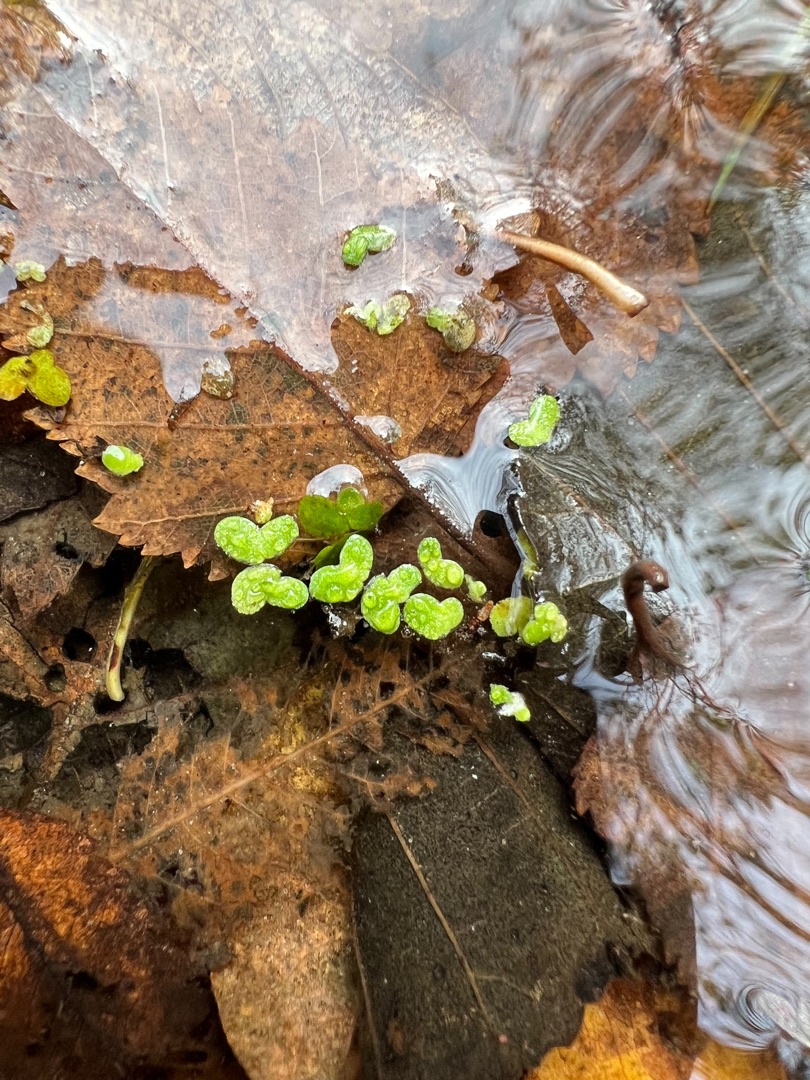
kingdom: Plantae
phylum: Tracheophyta
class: Liliopsida
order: Alismatales
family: Araceae
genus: Lemna
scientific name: Lemna minor
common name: Liden andemad
